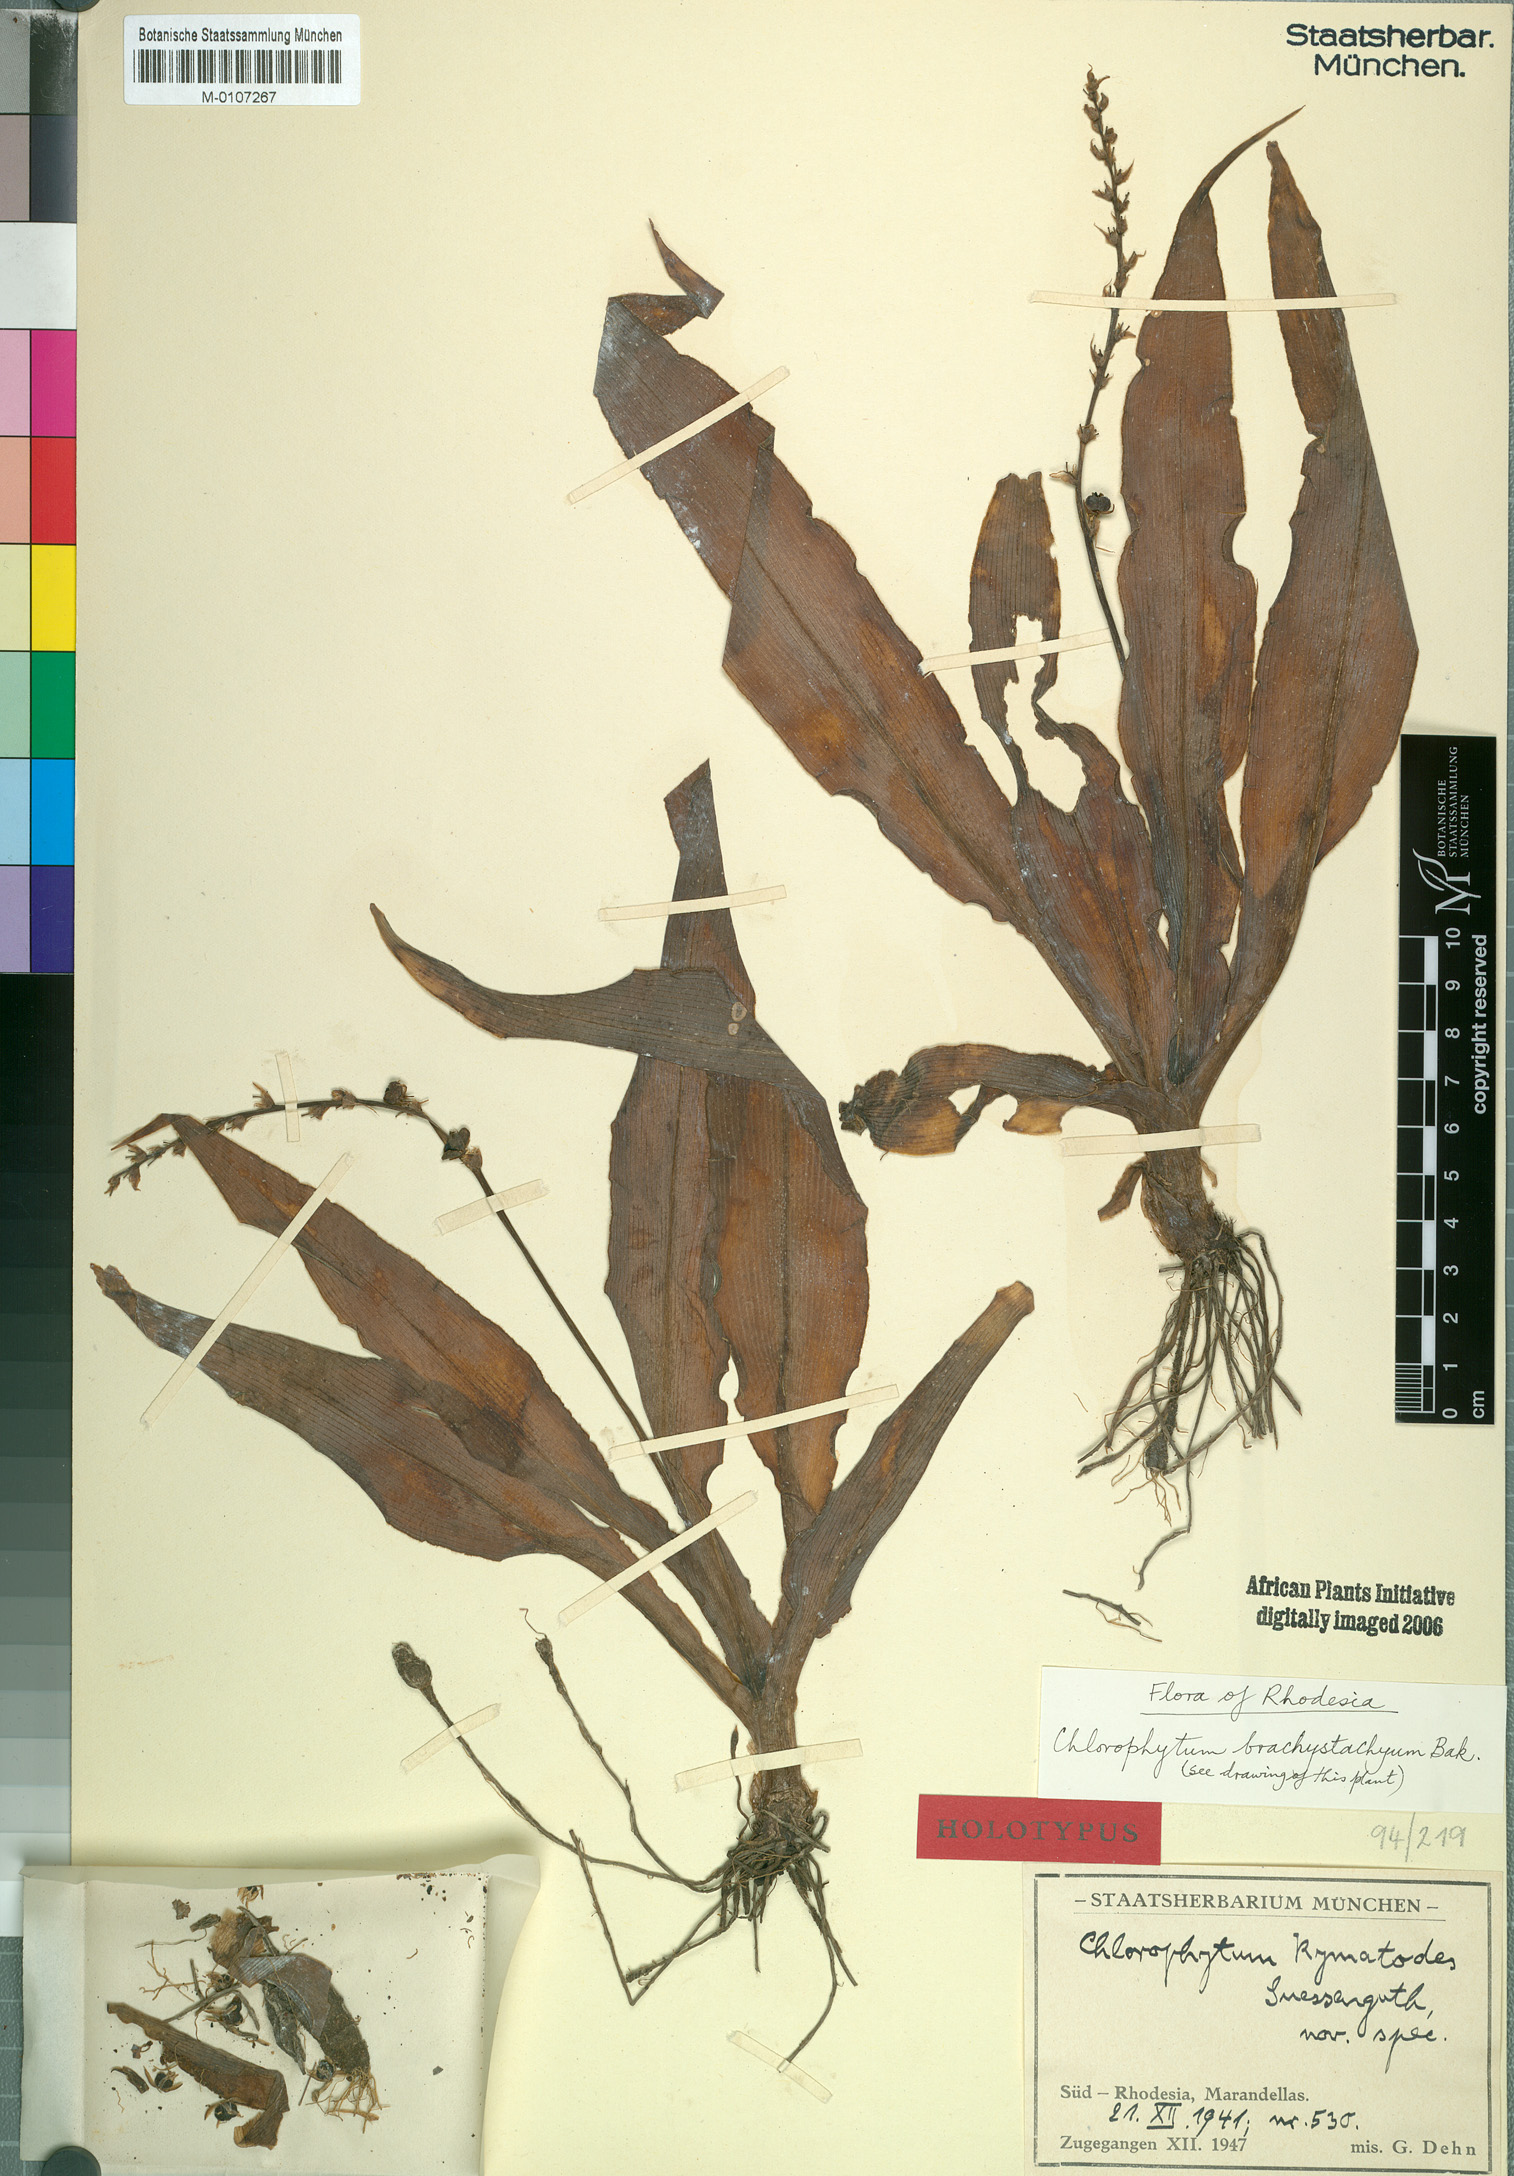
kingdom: Plantae
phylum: Tracheophyta
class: Liliopsida
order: Asparagales
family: Asparagaceae
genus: Chlorophytum
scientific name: Chlorophytum brachystachyum
